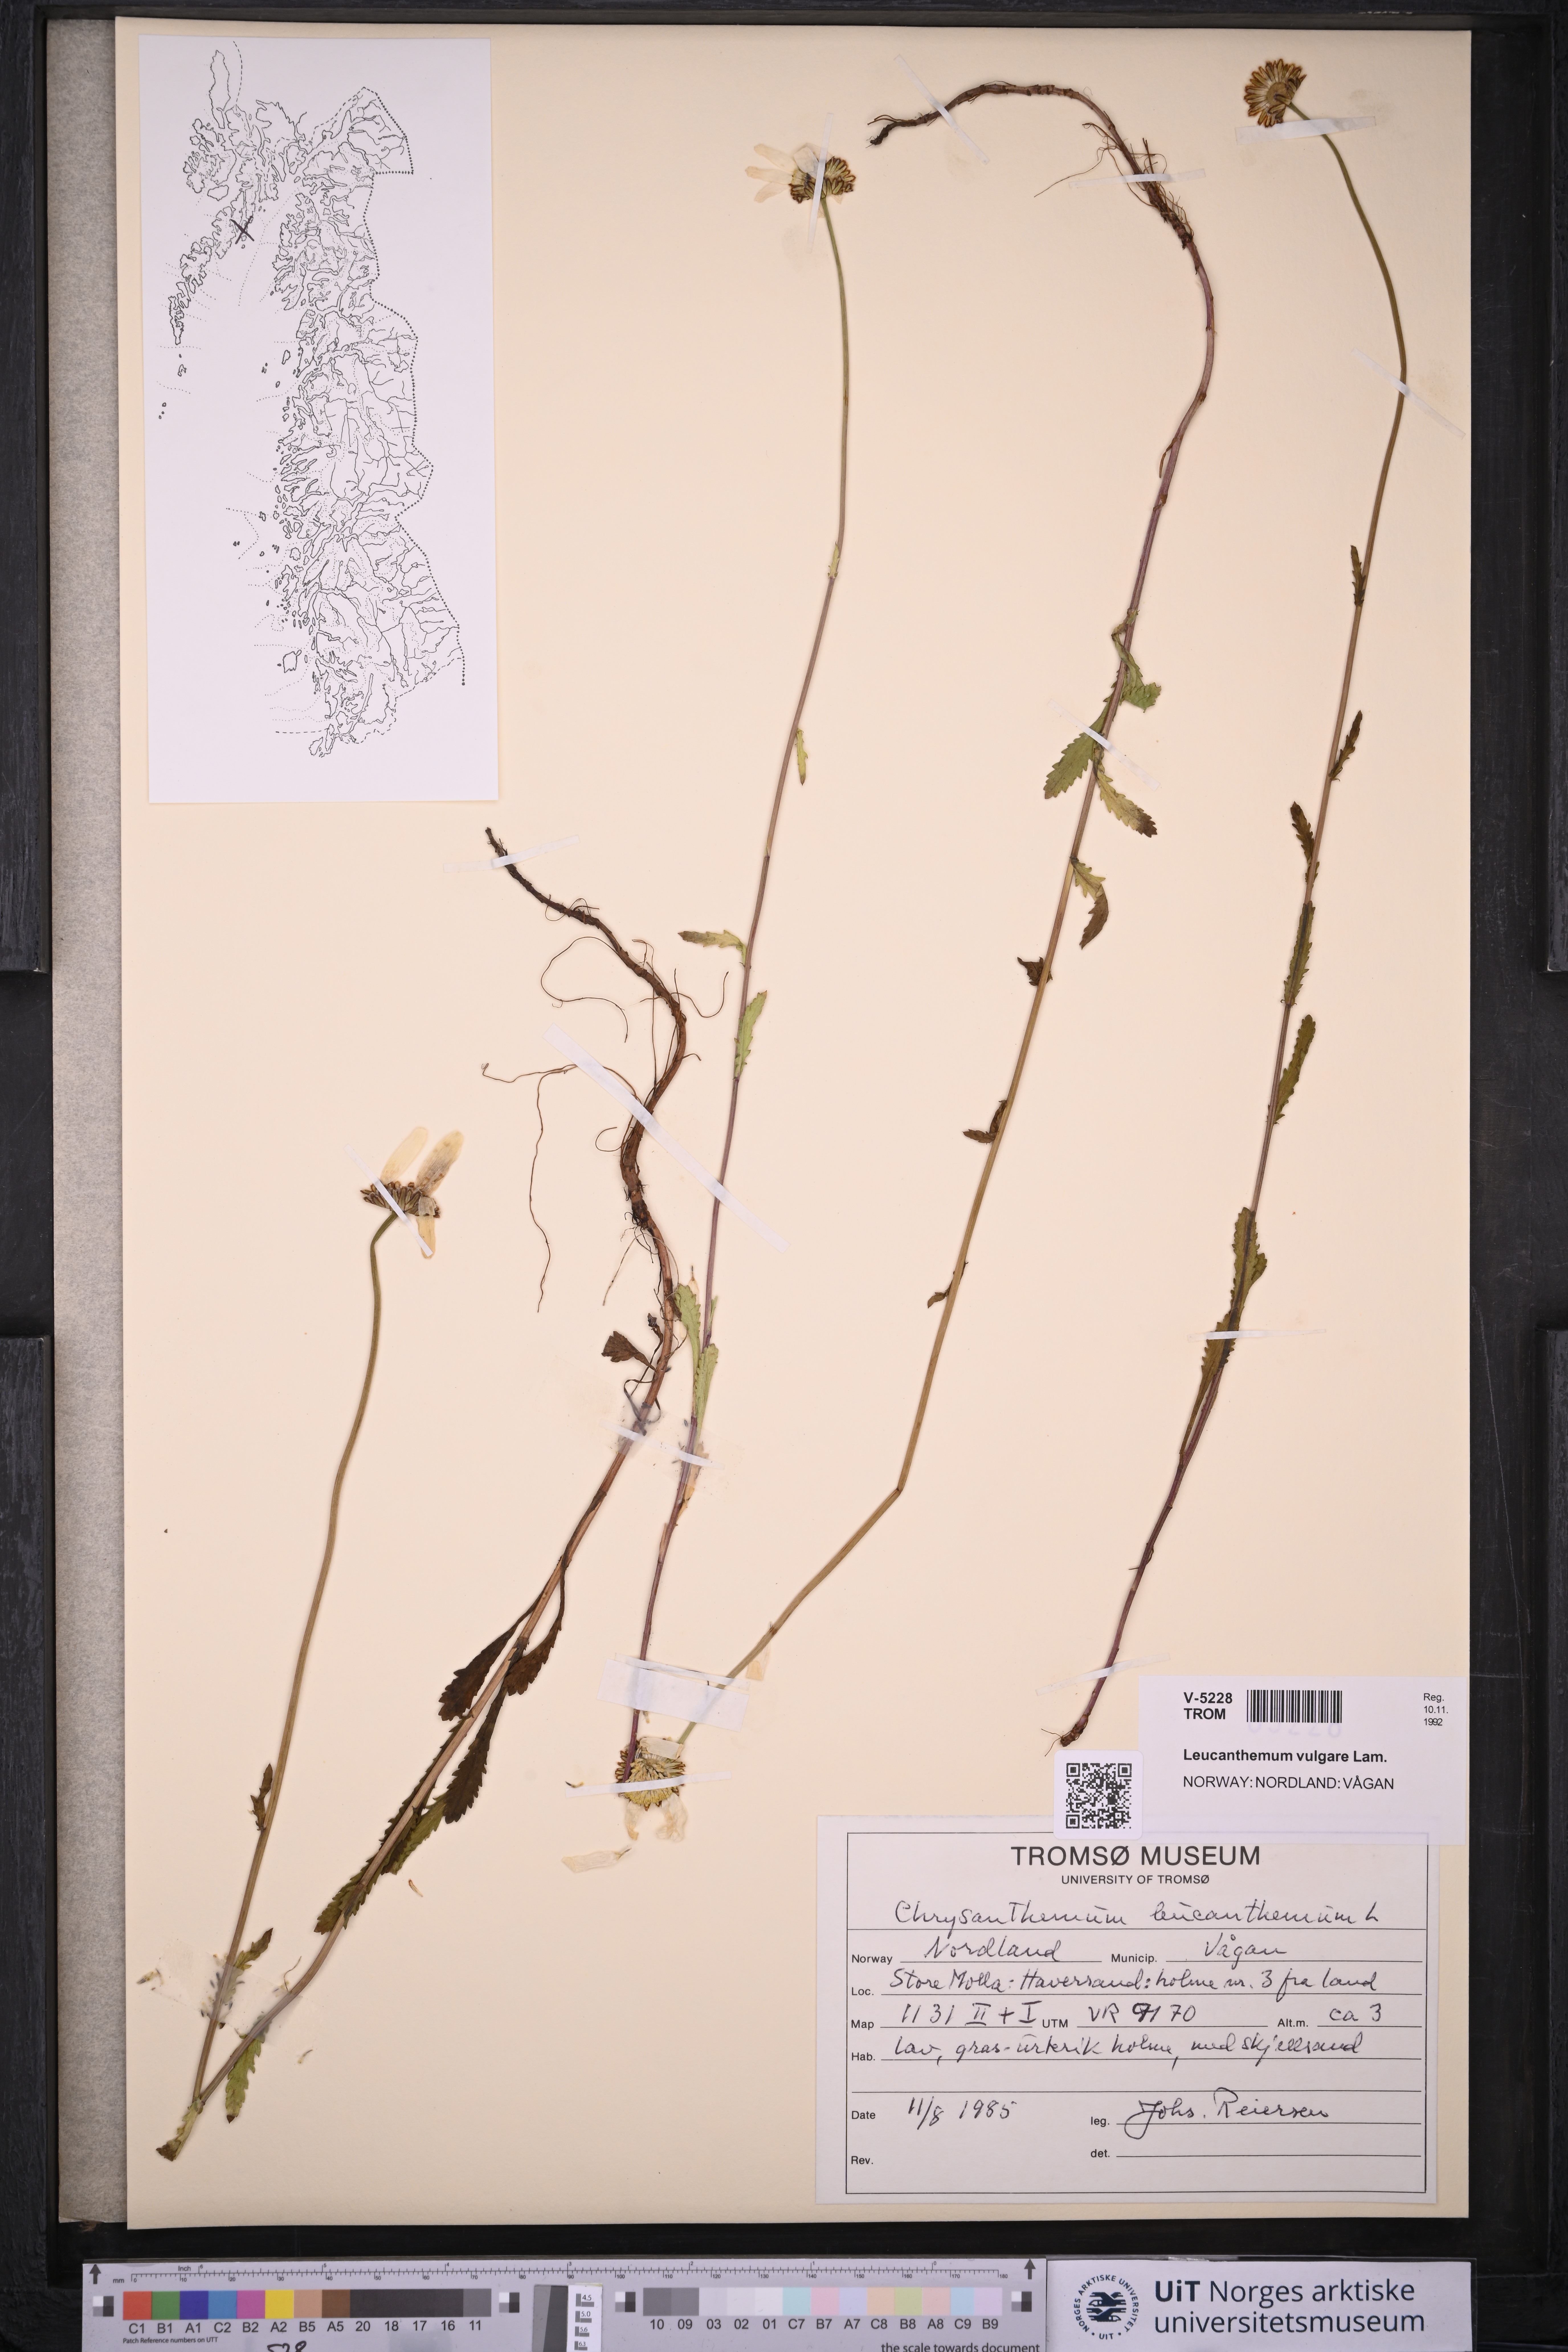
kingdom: Plantae
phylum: Tracheophyta
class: Magnoliopsida
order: Asterales
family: Asteraceae
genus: Leucanthemum
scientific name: Leucanthemum vulgare
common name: Oxeye daisy
